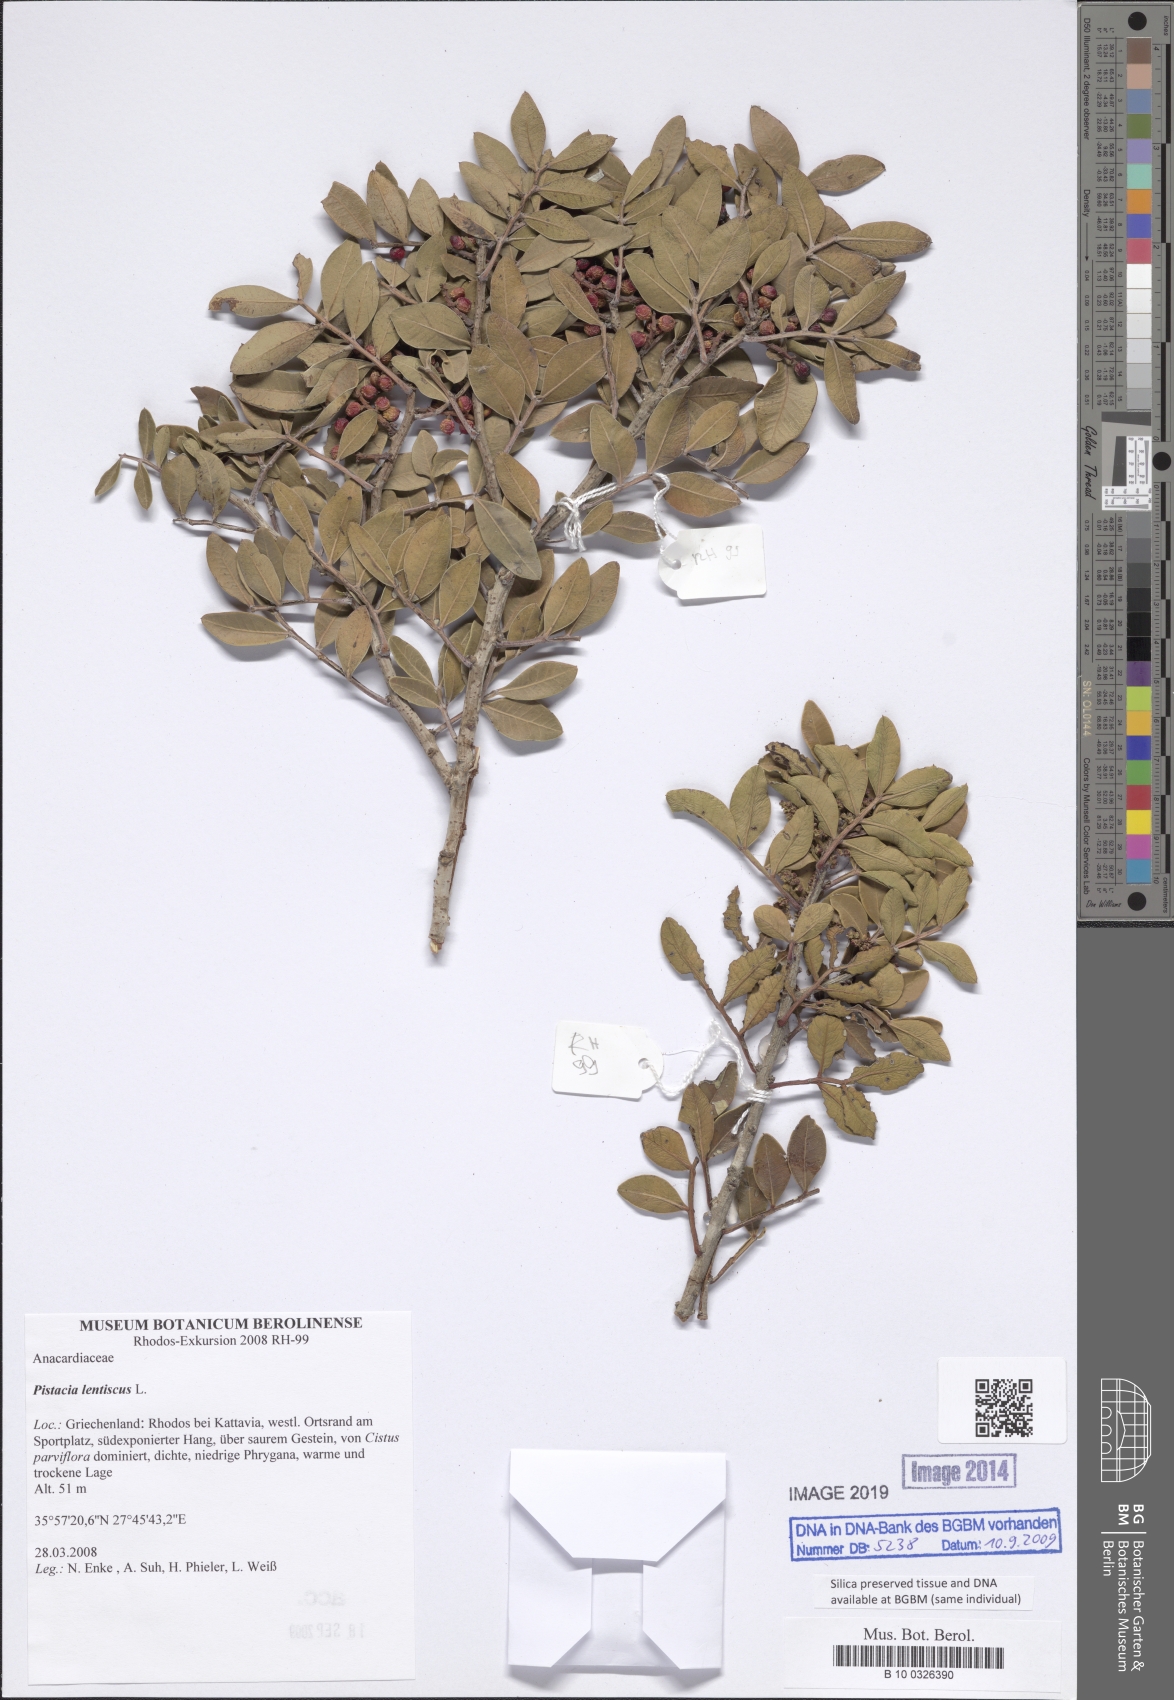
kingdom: Plantae
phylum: Tracheophyta
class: Magnoliopsida
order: Sapindales
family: Anacardiaceae
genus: Pistacia
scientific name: Pistacia lentiscus
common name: Lentisk
